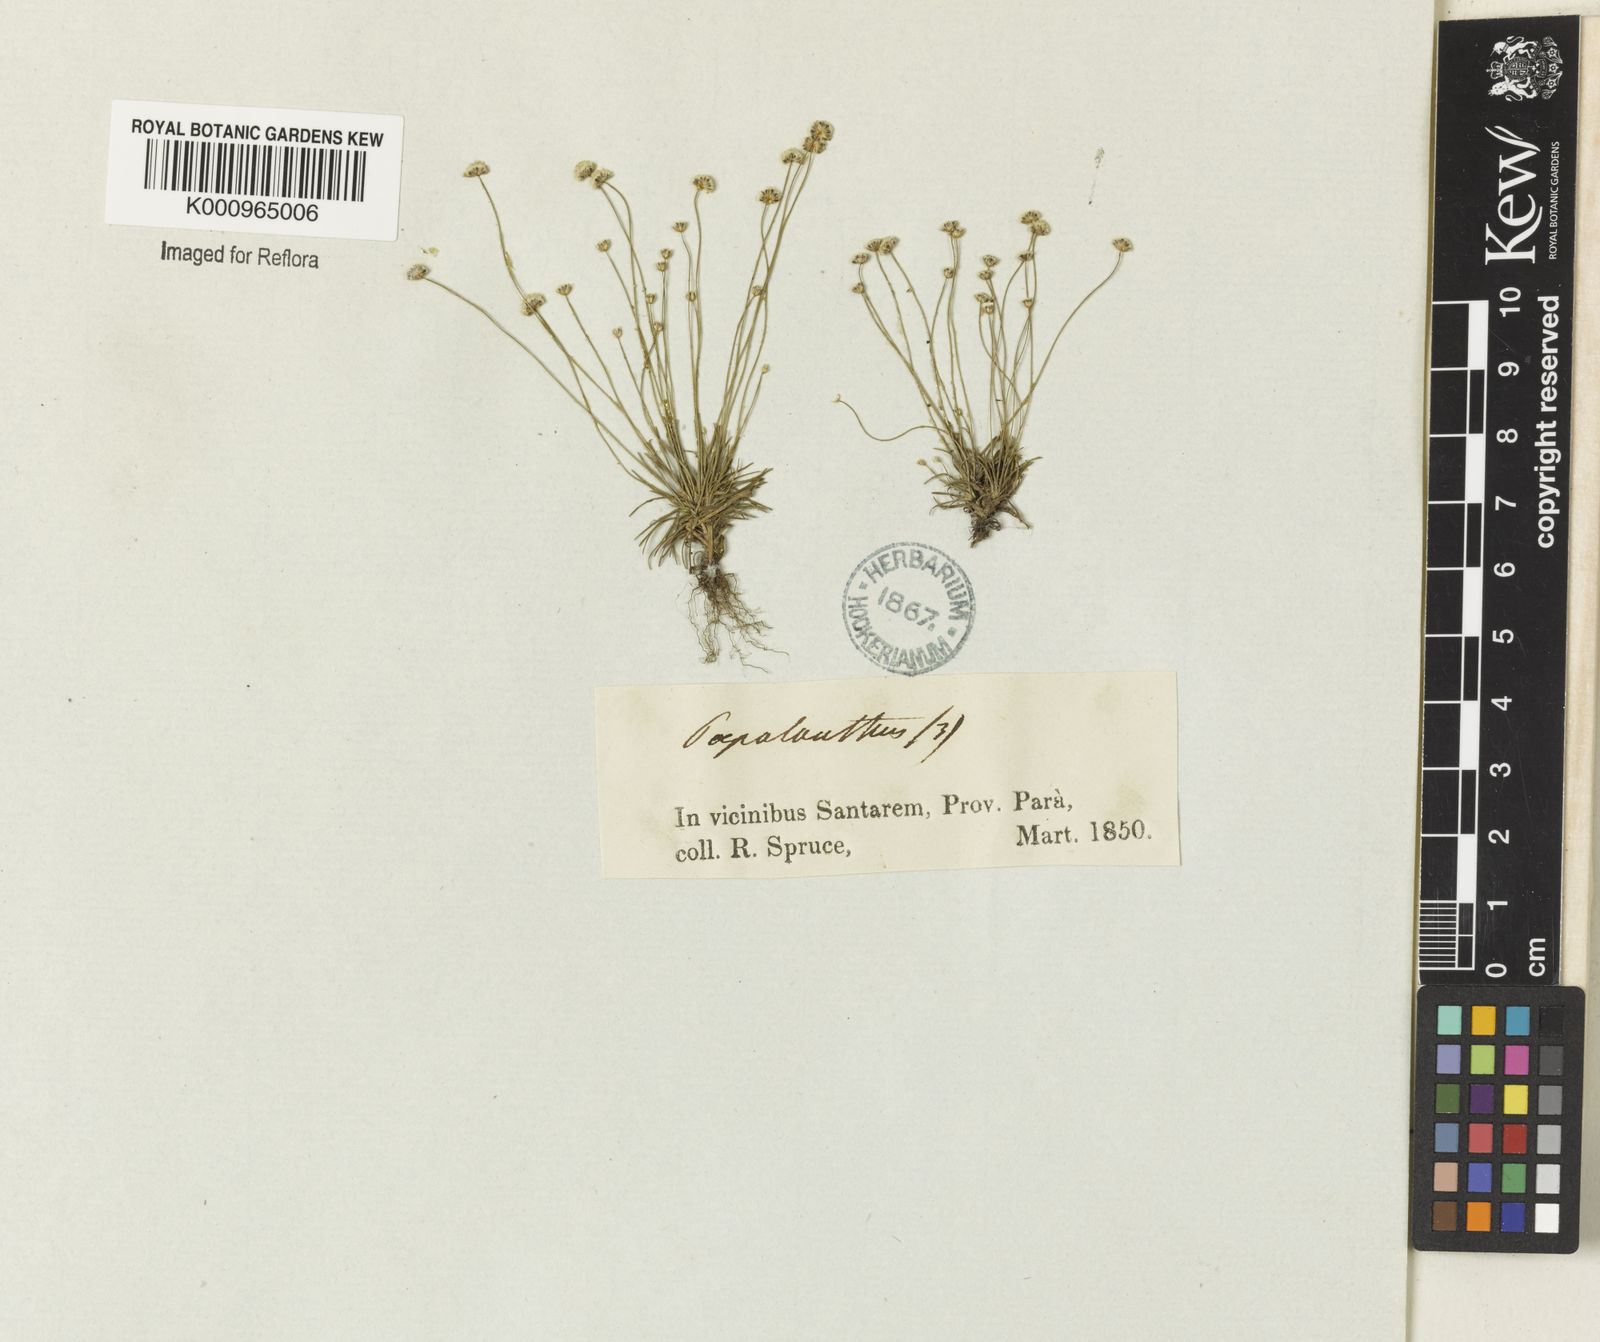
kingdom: Plantae
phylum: Tracheophyta
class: Liliopsida
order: Poales
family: Eriocaulaceae
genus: Paepalanthus
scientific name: Paepalanthus subtilis
